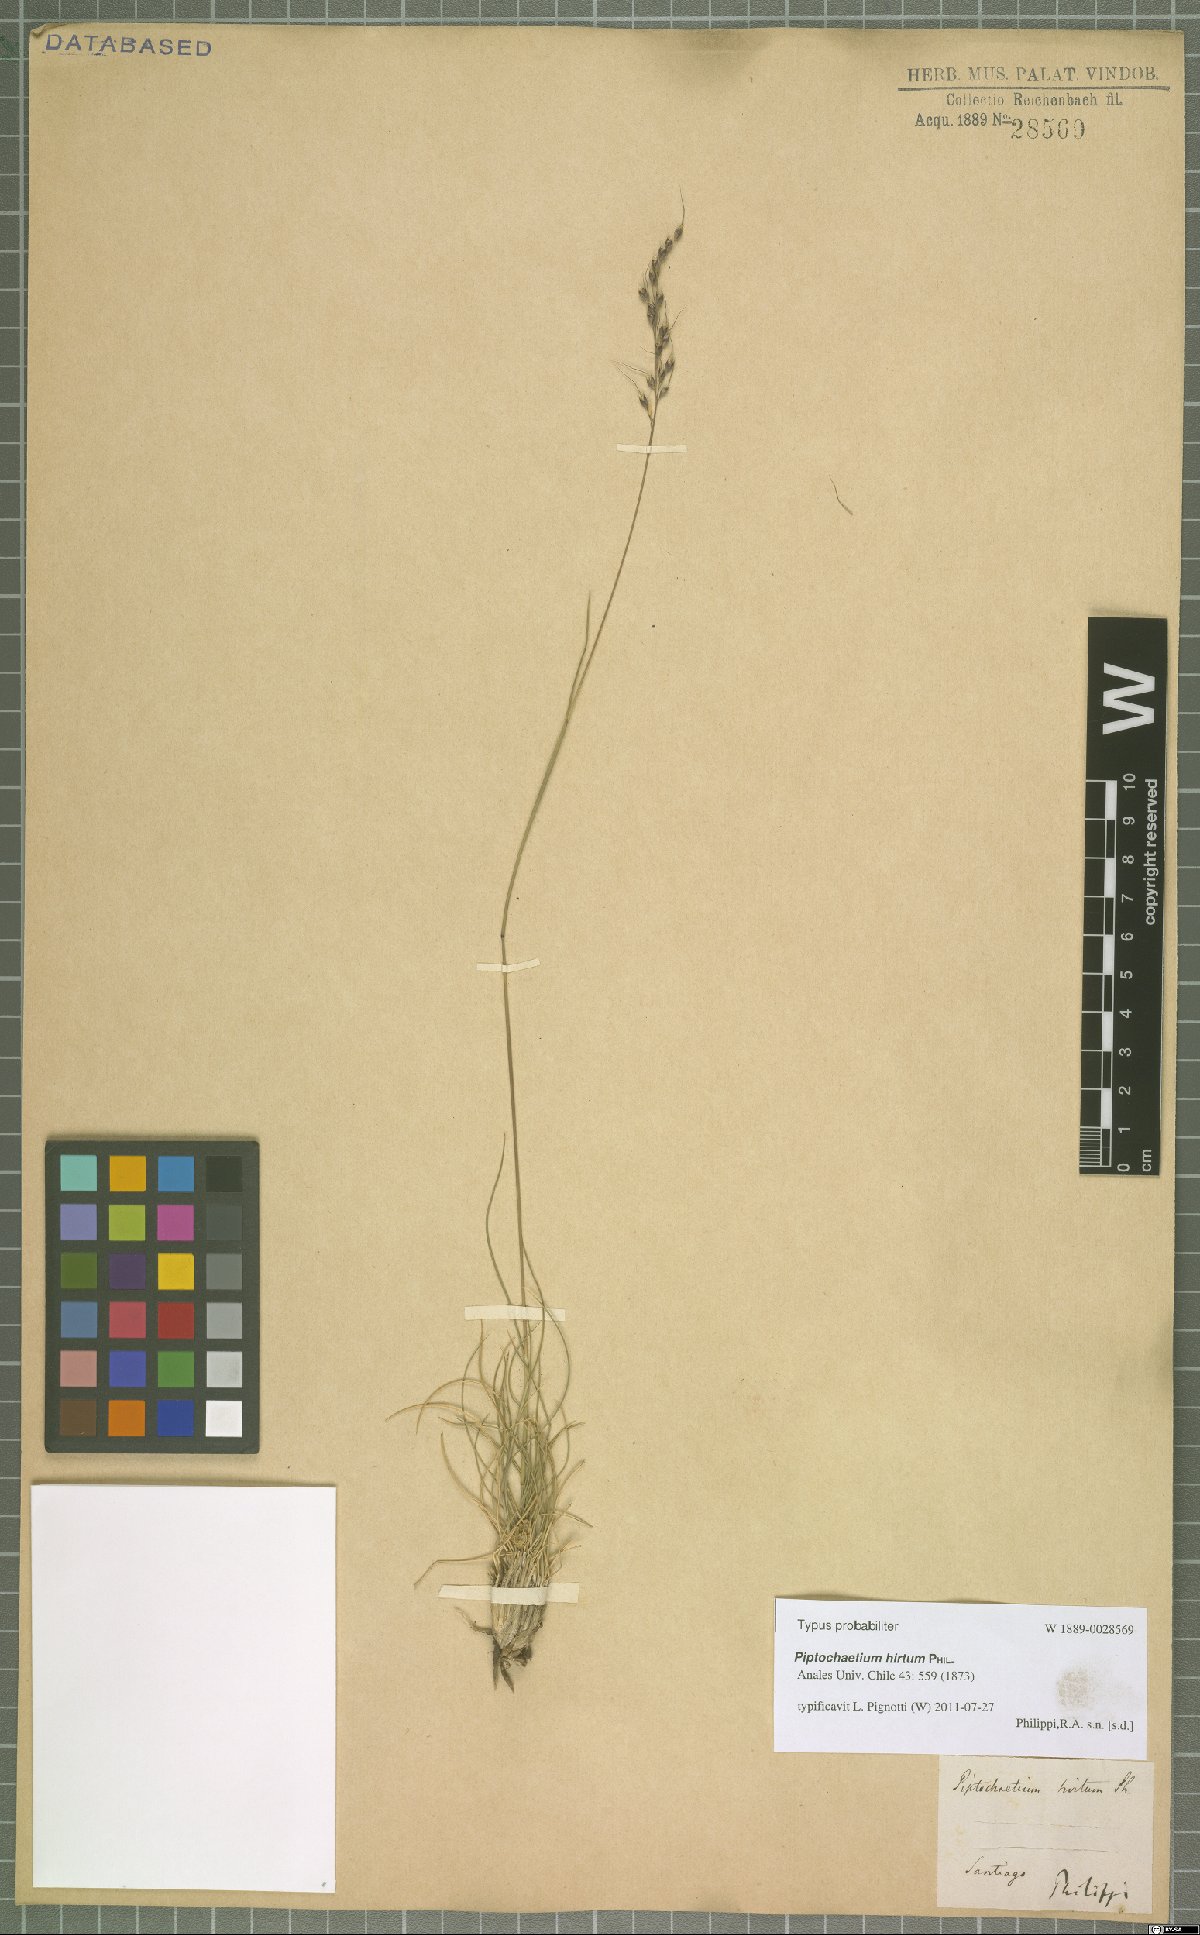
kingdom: Plantae
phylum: Tracheophyta
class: Liliopsida
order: Poales
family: Poaceae
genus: Piptochaetium
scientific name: Piptochaetium hirtum
